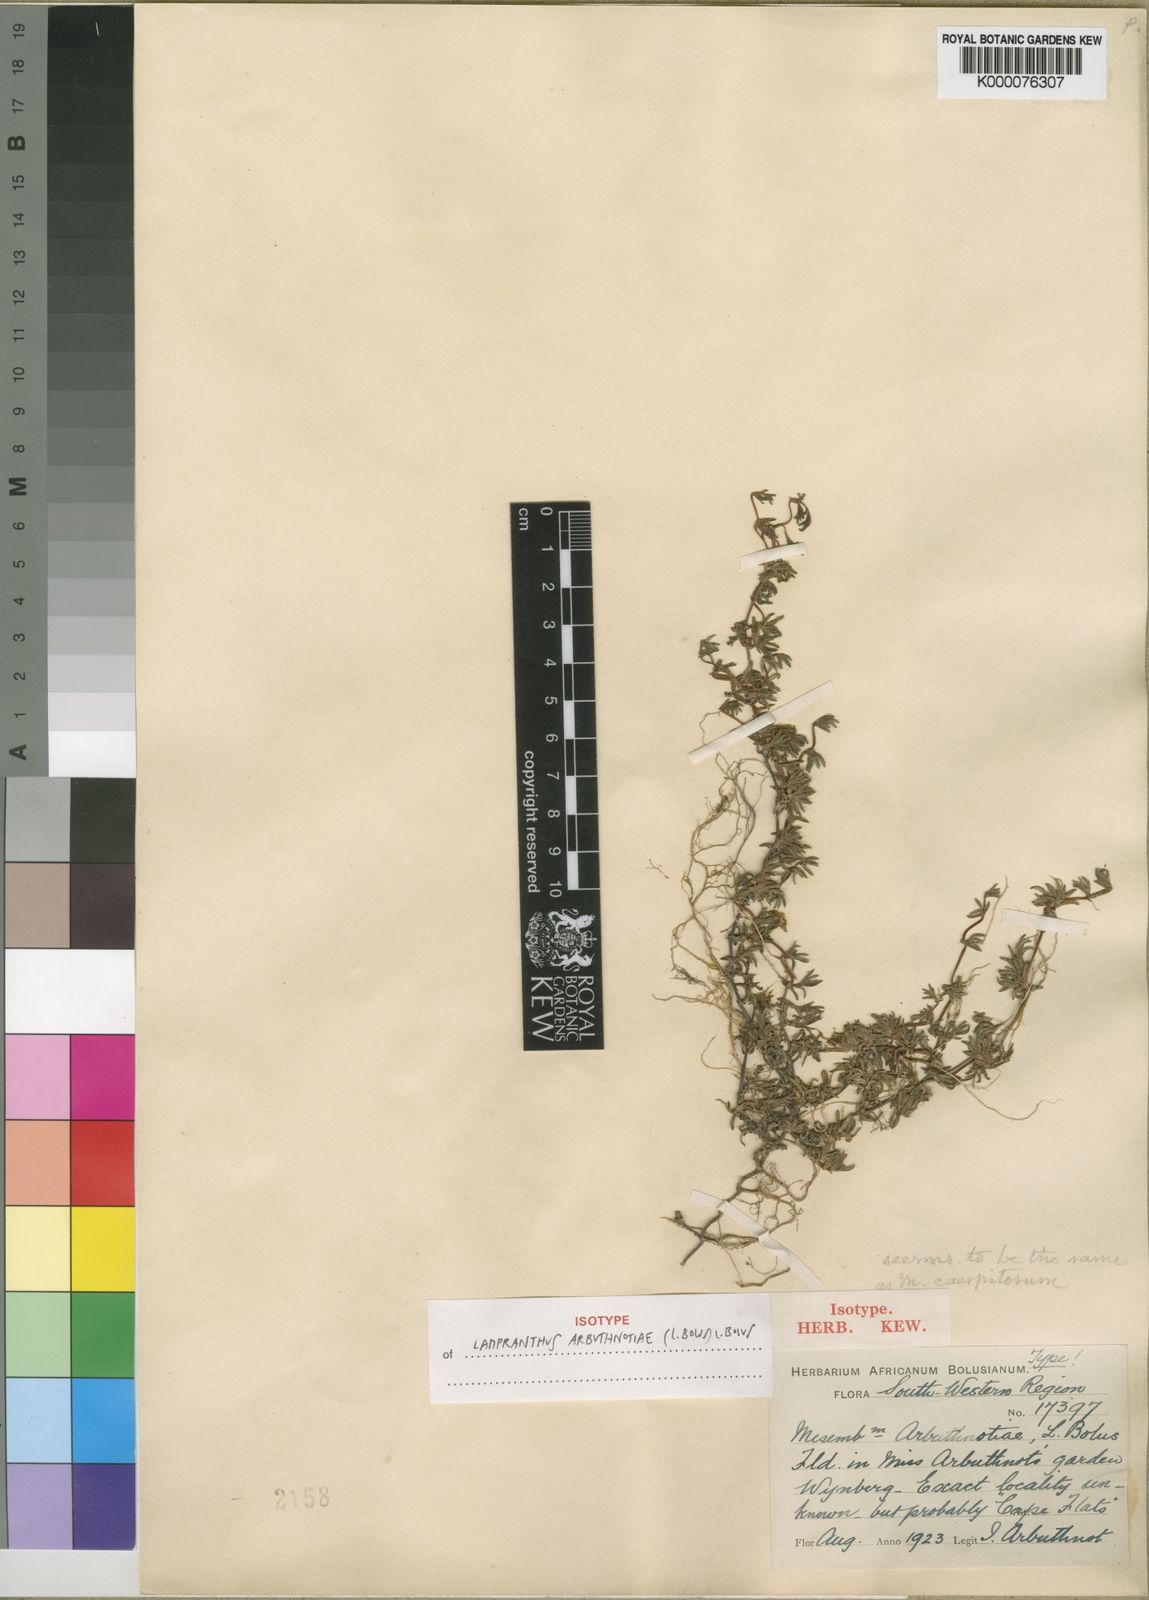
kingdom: Plantae
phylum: Tracheophyta
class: Magnoliopsida
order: Caryophyllales
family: Aizoaceae
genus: Lampranthus
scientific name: Lampranthus arbuthnotiae
